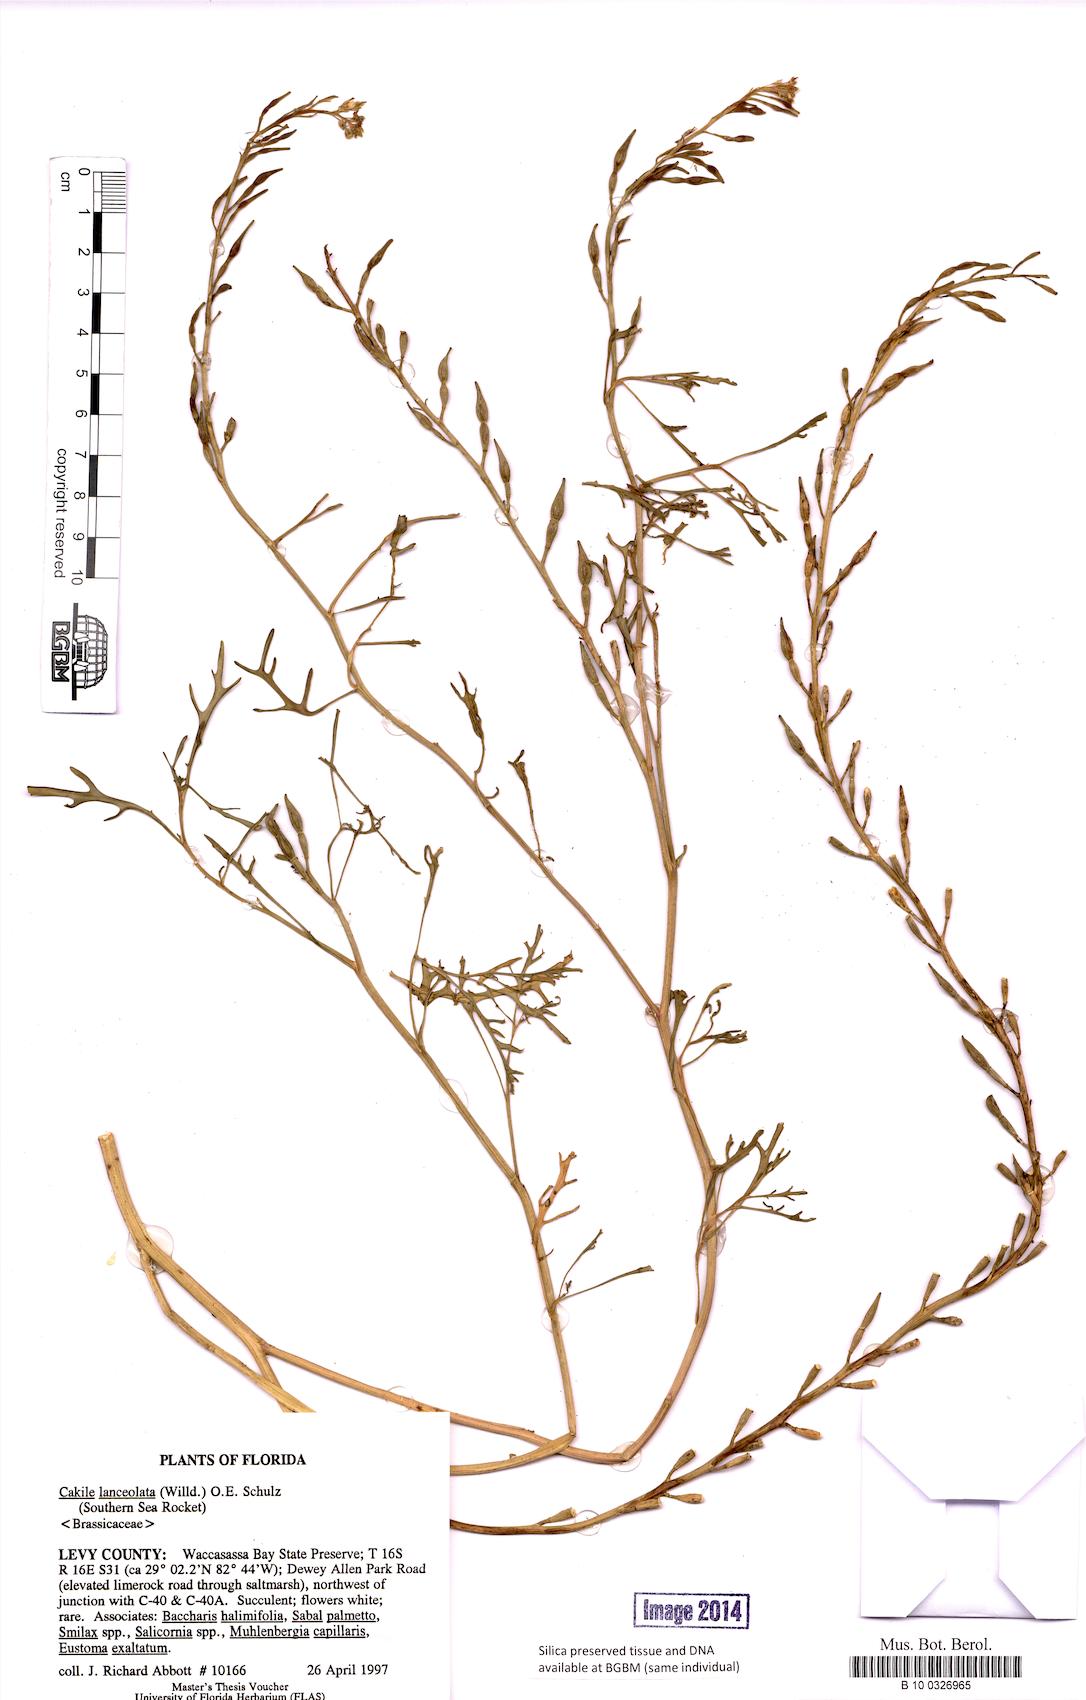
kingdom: Plantae
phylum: Tracheophyta
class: Magnoliopsida
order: Brassicales
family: Brassicaceae
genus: Cakile
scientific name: Cakile lanceolata
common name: Sea rocket
